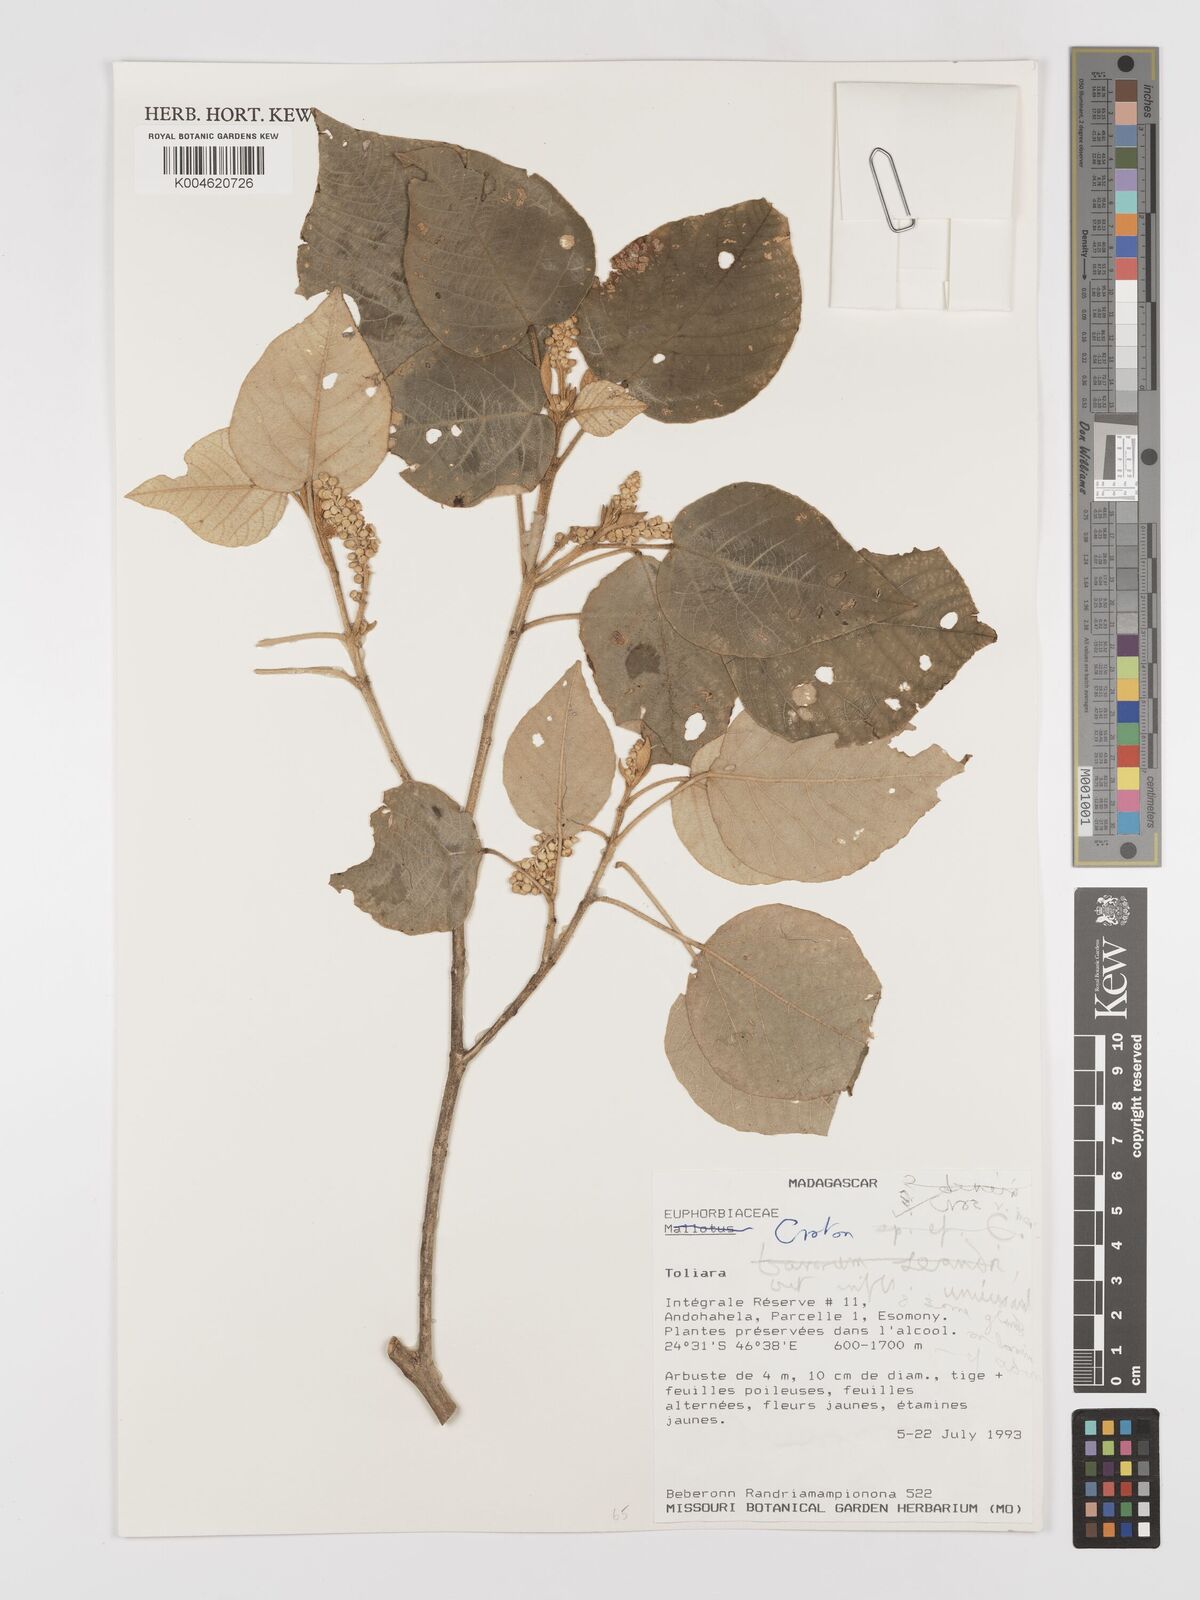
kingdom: Plantae
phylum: Tracheophyta
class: Magnoliopsida
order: Malpighiales
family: Euphorbiaceae
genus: Croton
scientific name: Croton
